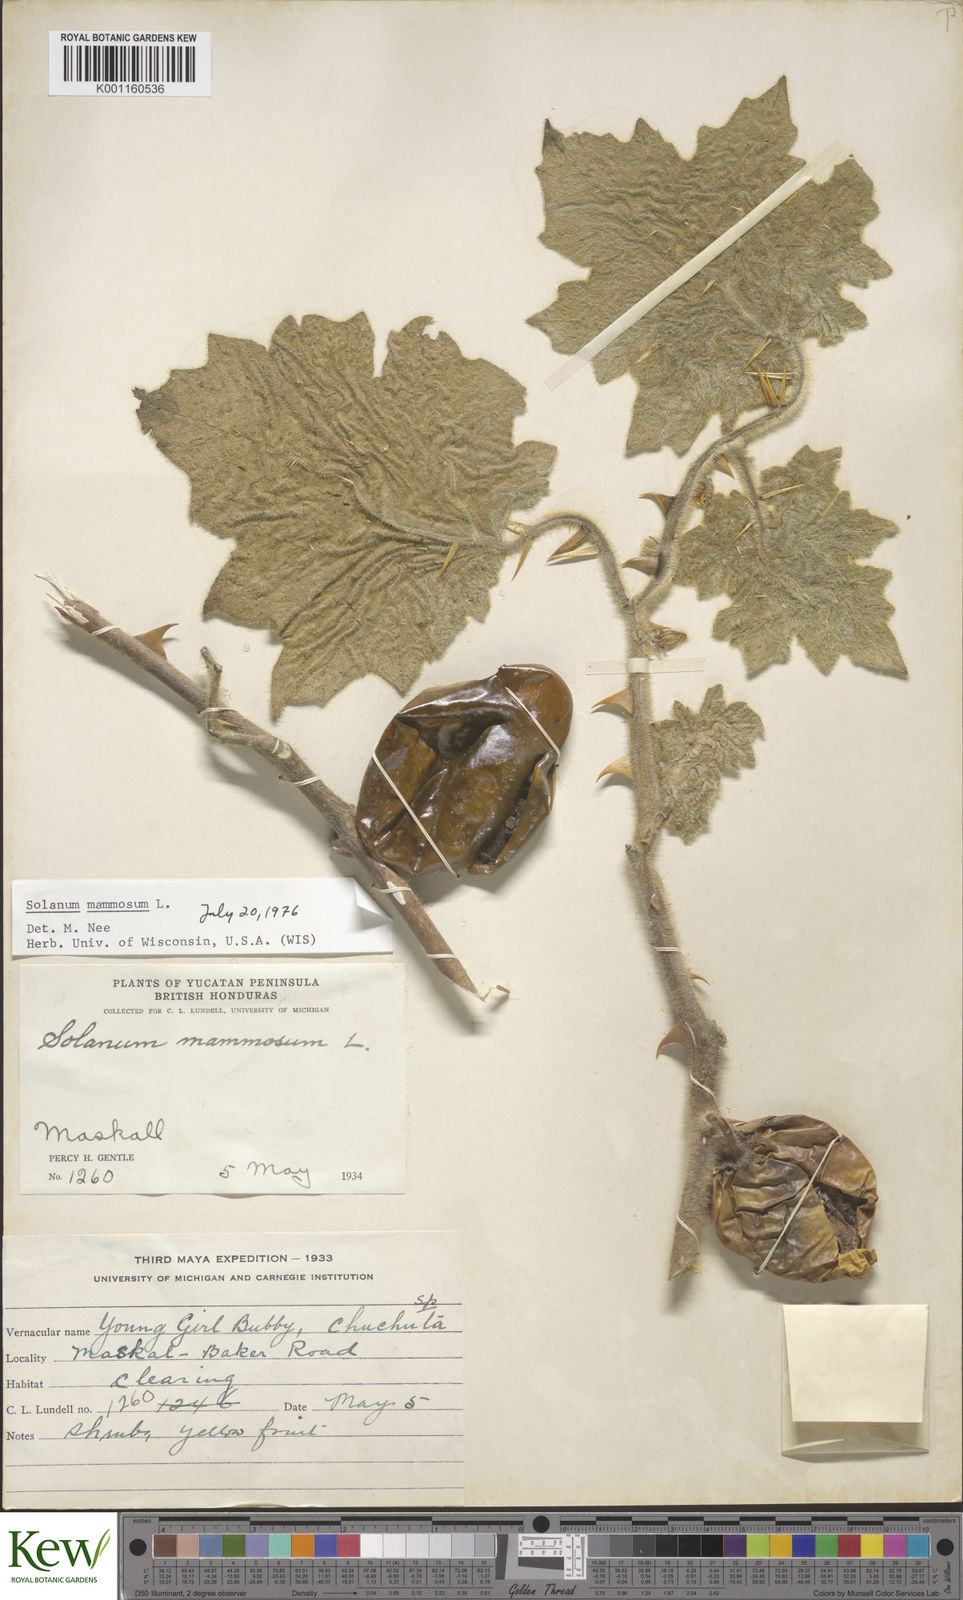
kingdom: Plantae
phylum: Tracheophyta
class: Magnoliopsida
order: Solanales
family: Solanaceae
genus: Solanum
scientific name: Solanum mammosum
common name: Nipple fruit
